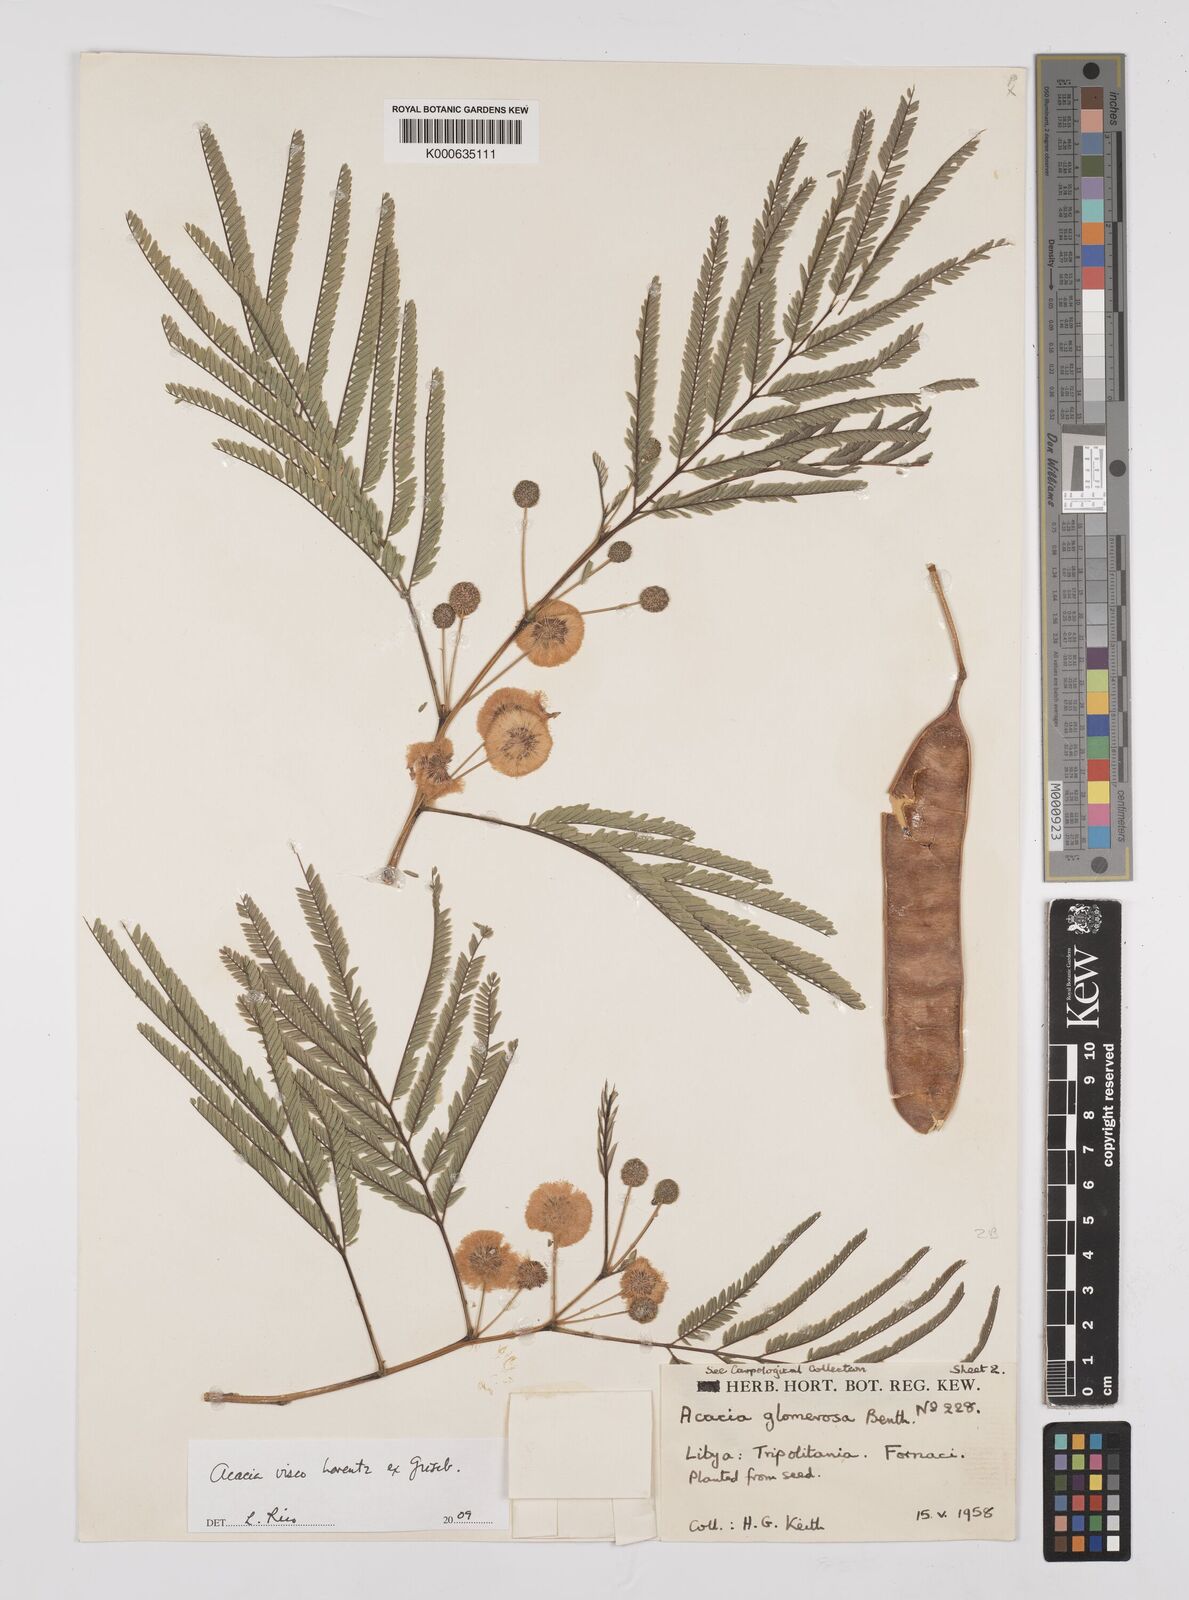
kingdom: Plantae
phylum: Tracheophyta
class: Magnoliopsida
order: Fabales
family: Fabaceae
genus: Parasenegalia
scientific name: Parasenegalia visco
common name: Visco
